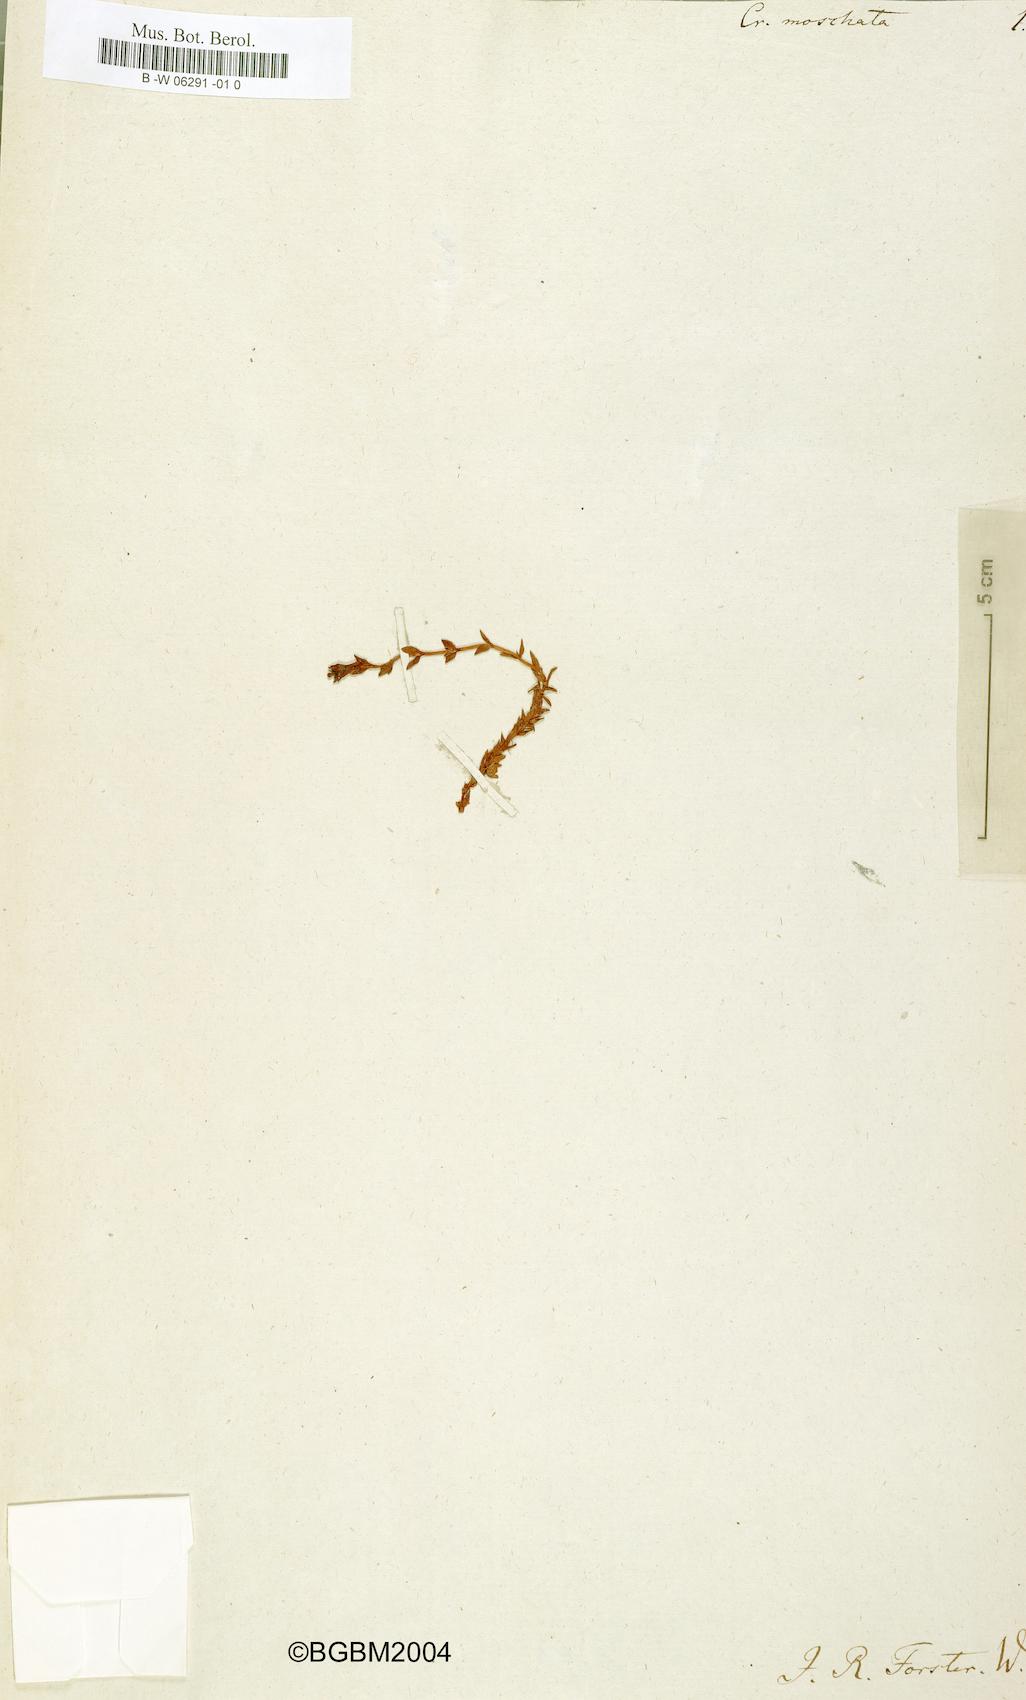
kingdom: Plantae
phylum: Tracheophyta
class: Magnoliopsida
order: Saxifragales
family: Crassulaceae
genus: Crassula
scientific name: Crassula moschata
